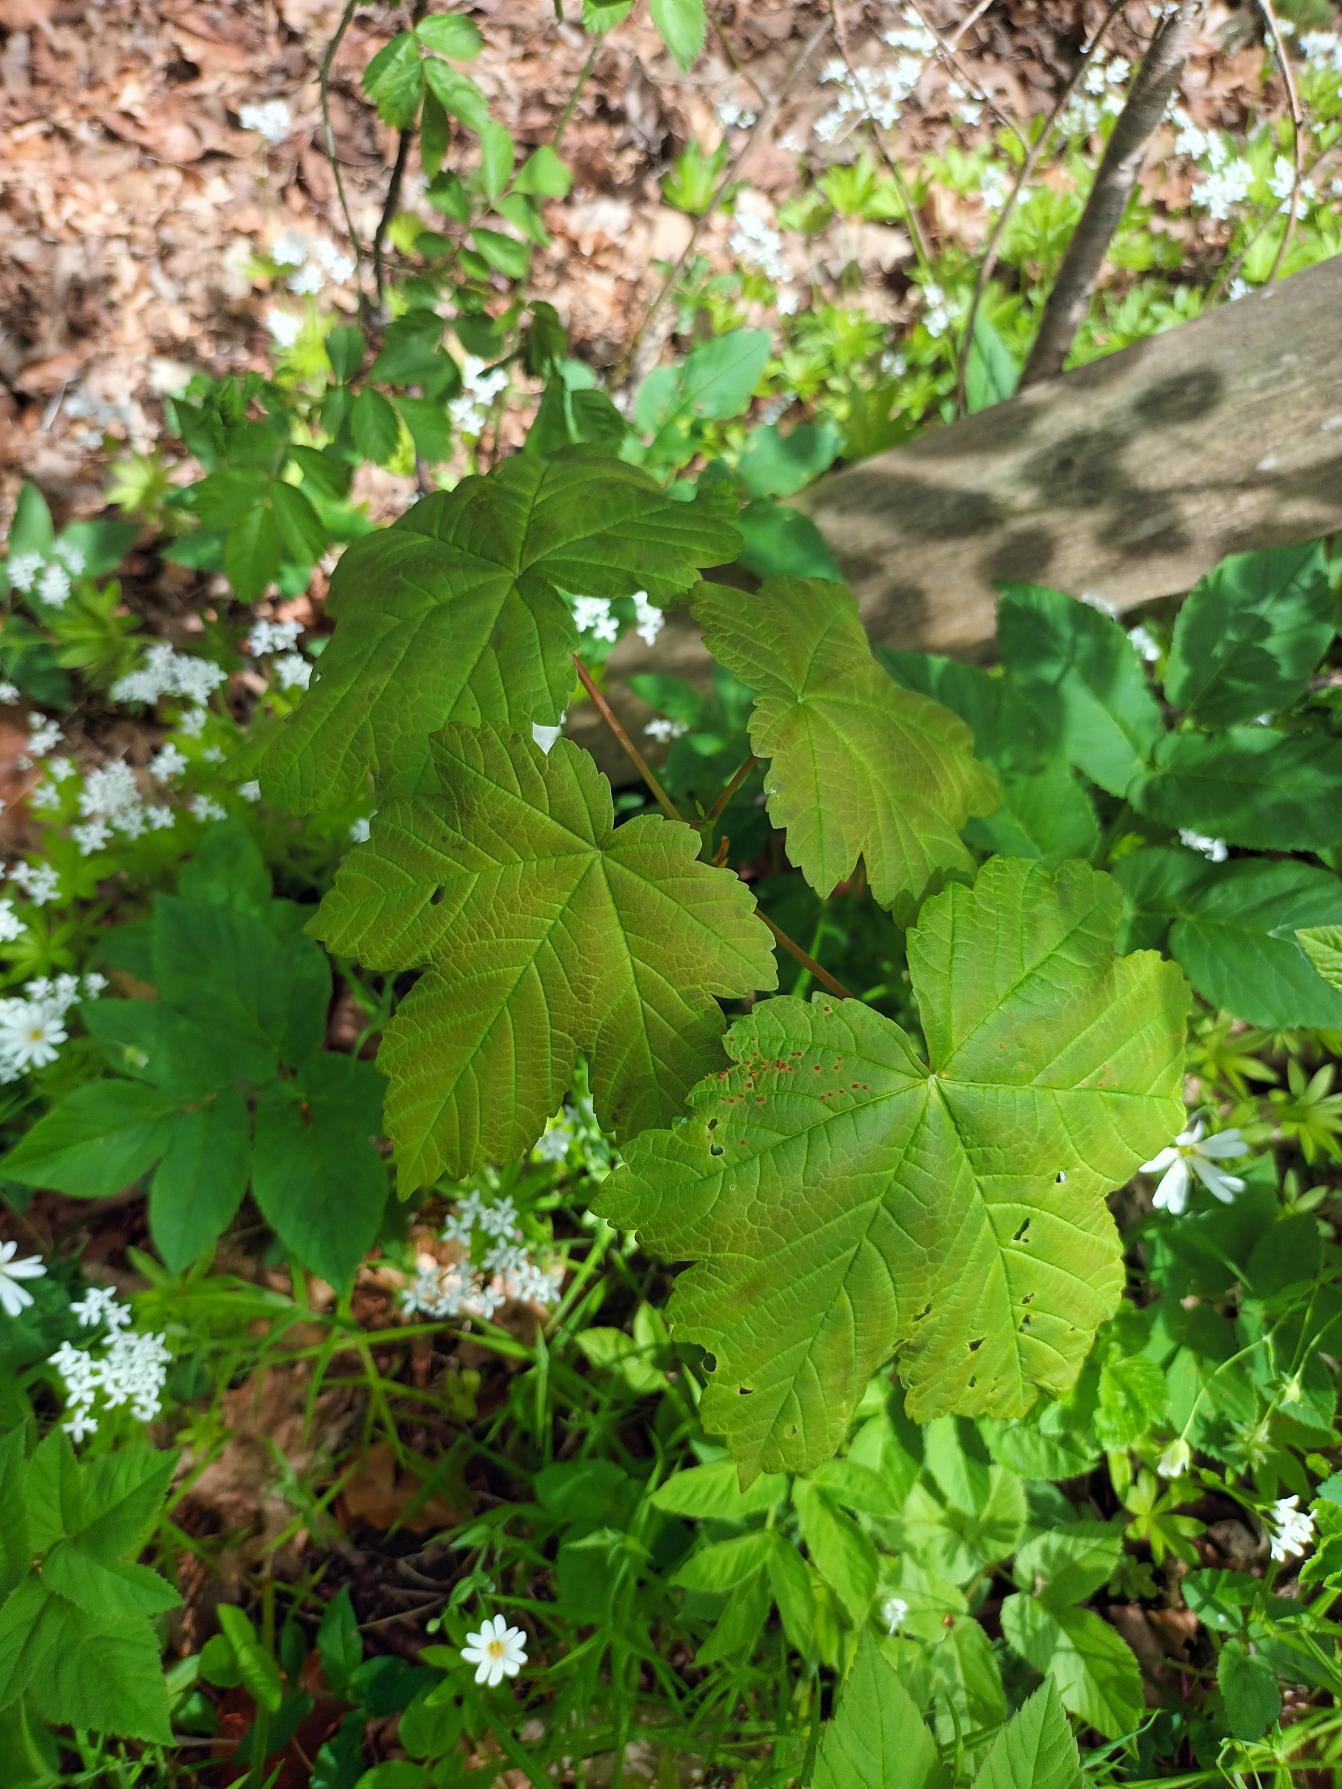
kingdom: Plantae
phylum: Tracheophyta
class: Magnoliopsida
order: Sapindales
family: Sapindaceae
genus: Acer
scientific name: Acer pseudoplatanus
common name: Ahorn
